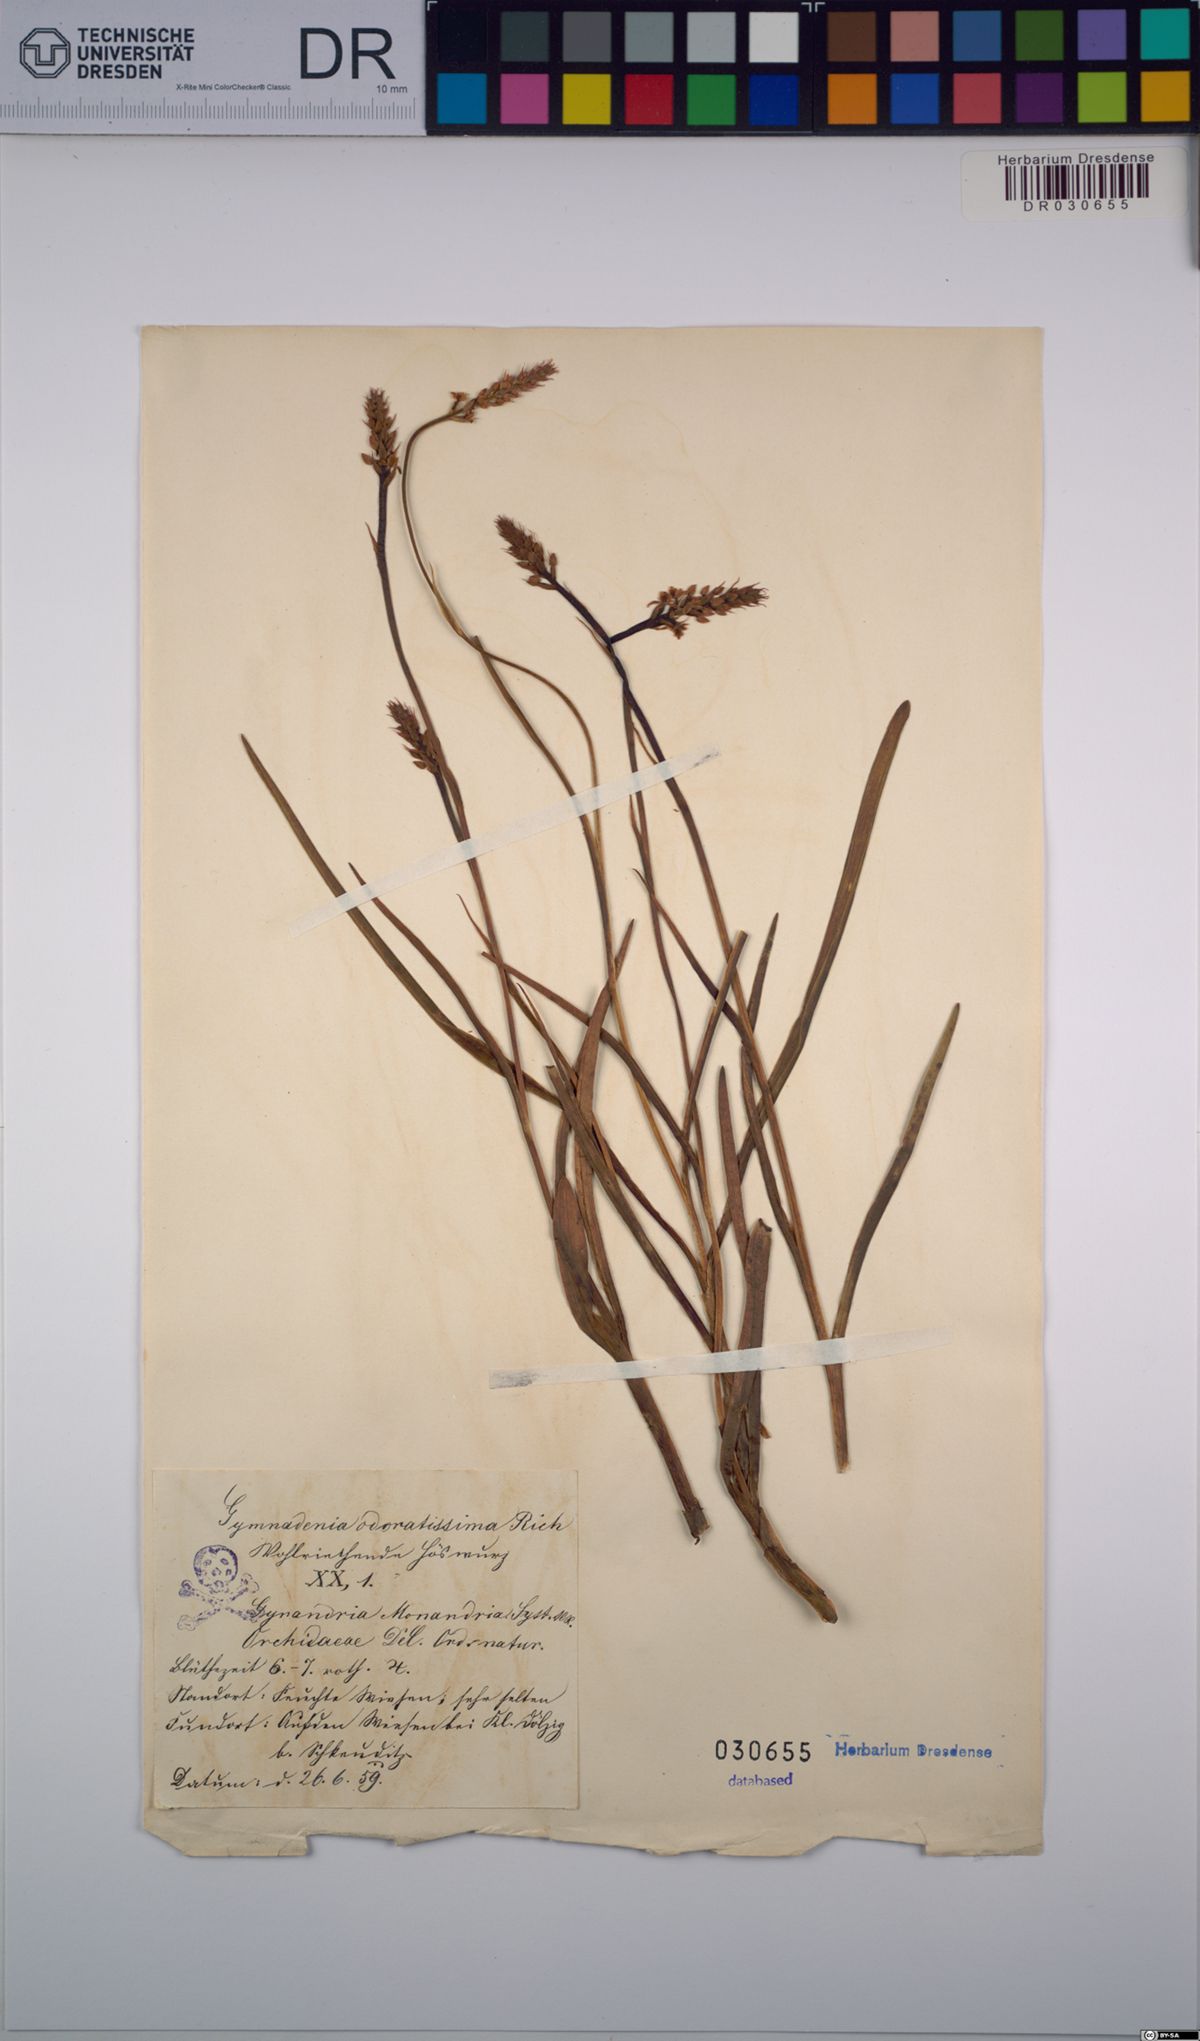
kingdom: Plantae
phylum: Tracheophyta
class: Liliopsida
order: Asparagales
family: Orchidaceae
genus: Gymnadenia
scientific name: Gymnadenia odoratissima
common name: Scented gymnadenia
